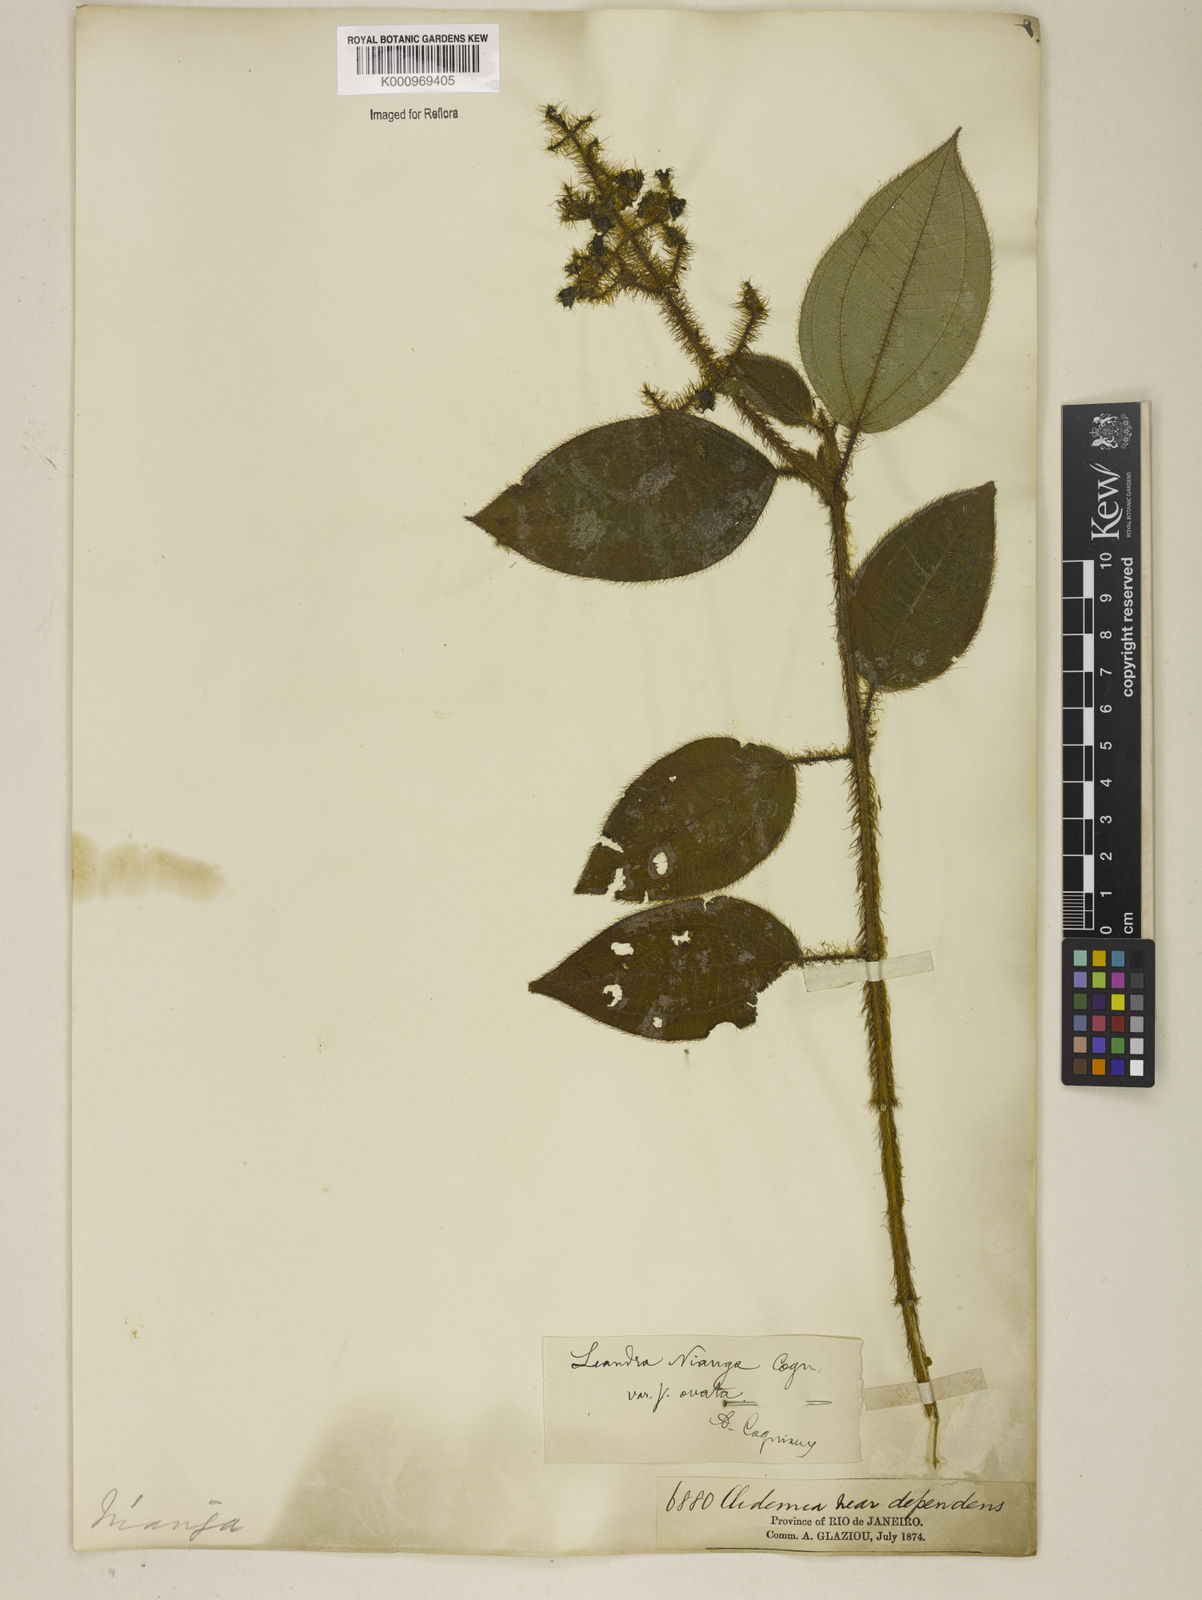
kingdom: Plantae
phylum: Tracheophyta
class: Magnoliopsida
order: Myrtales
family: Melastomataceae
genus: Miconia
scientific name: Miconia nianga
